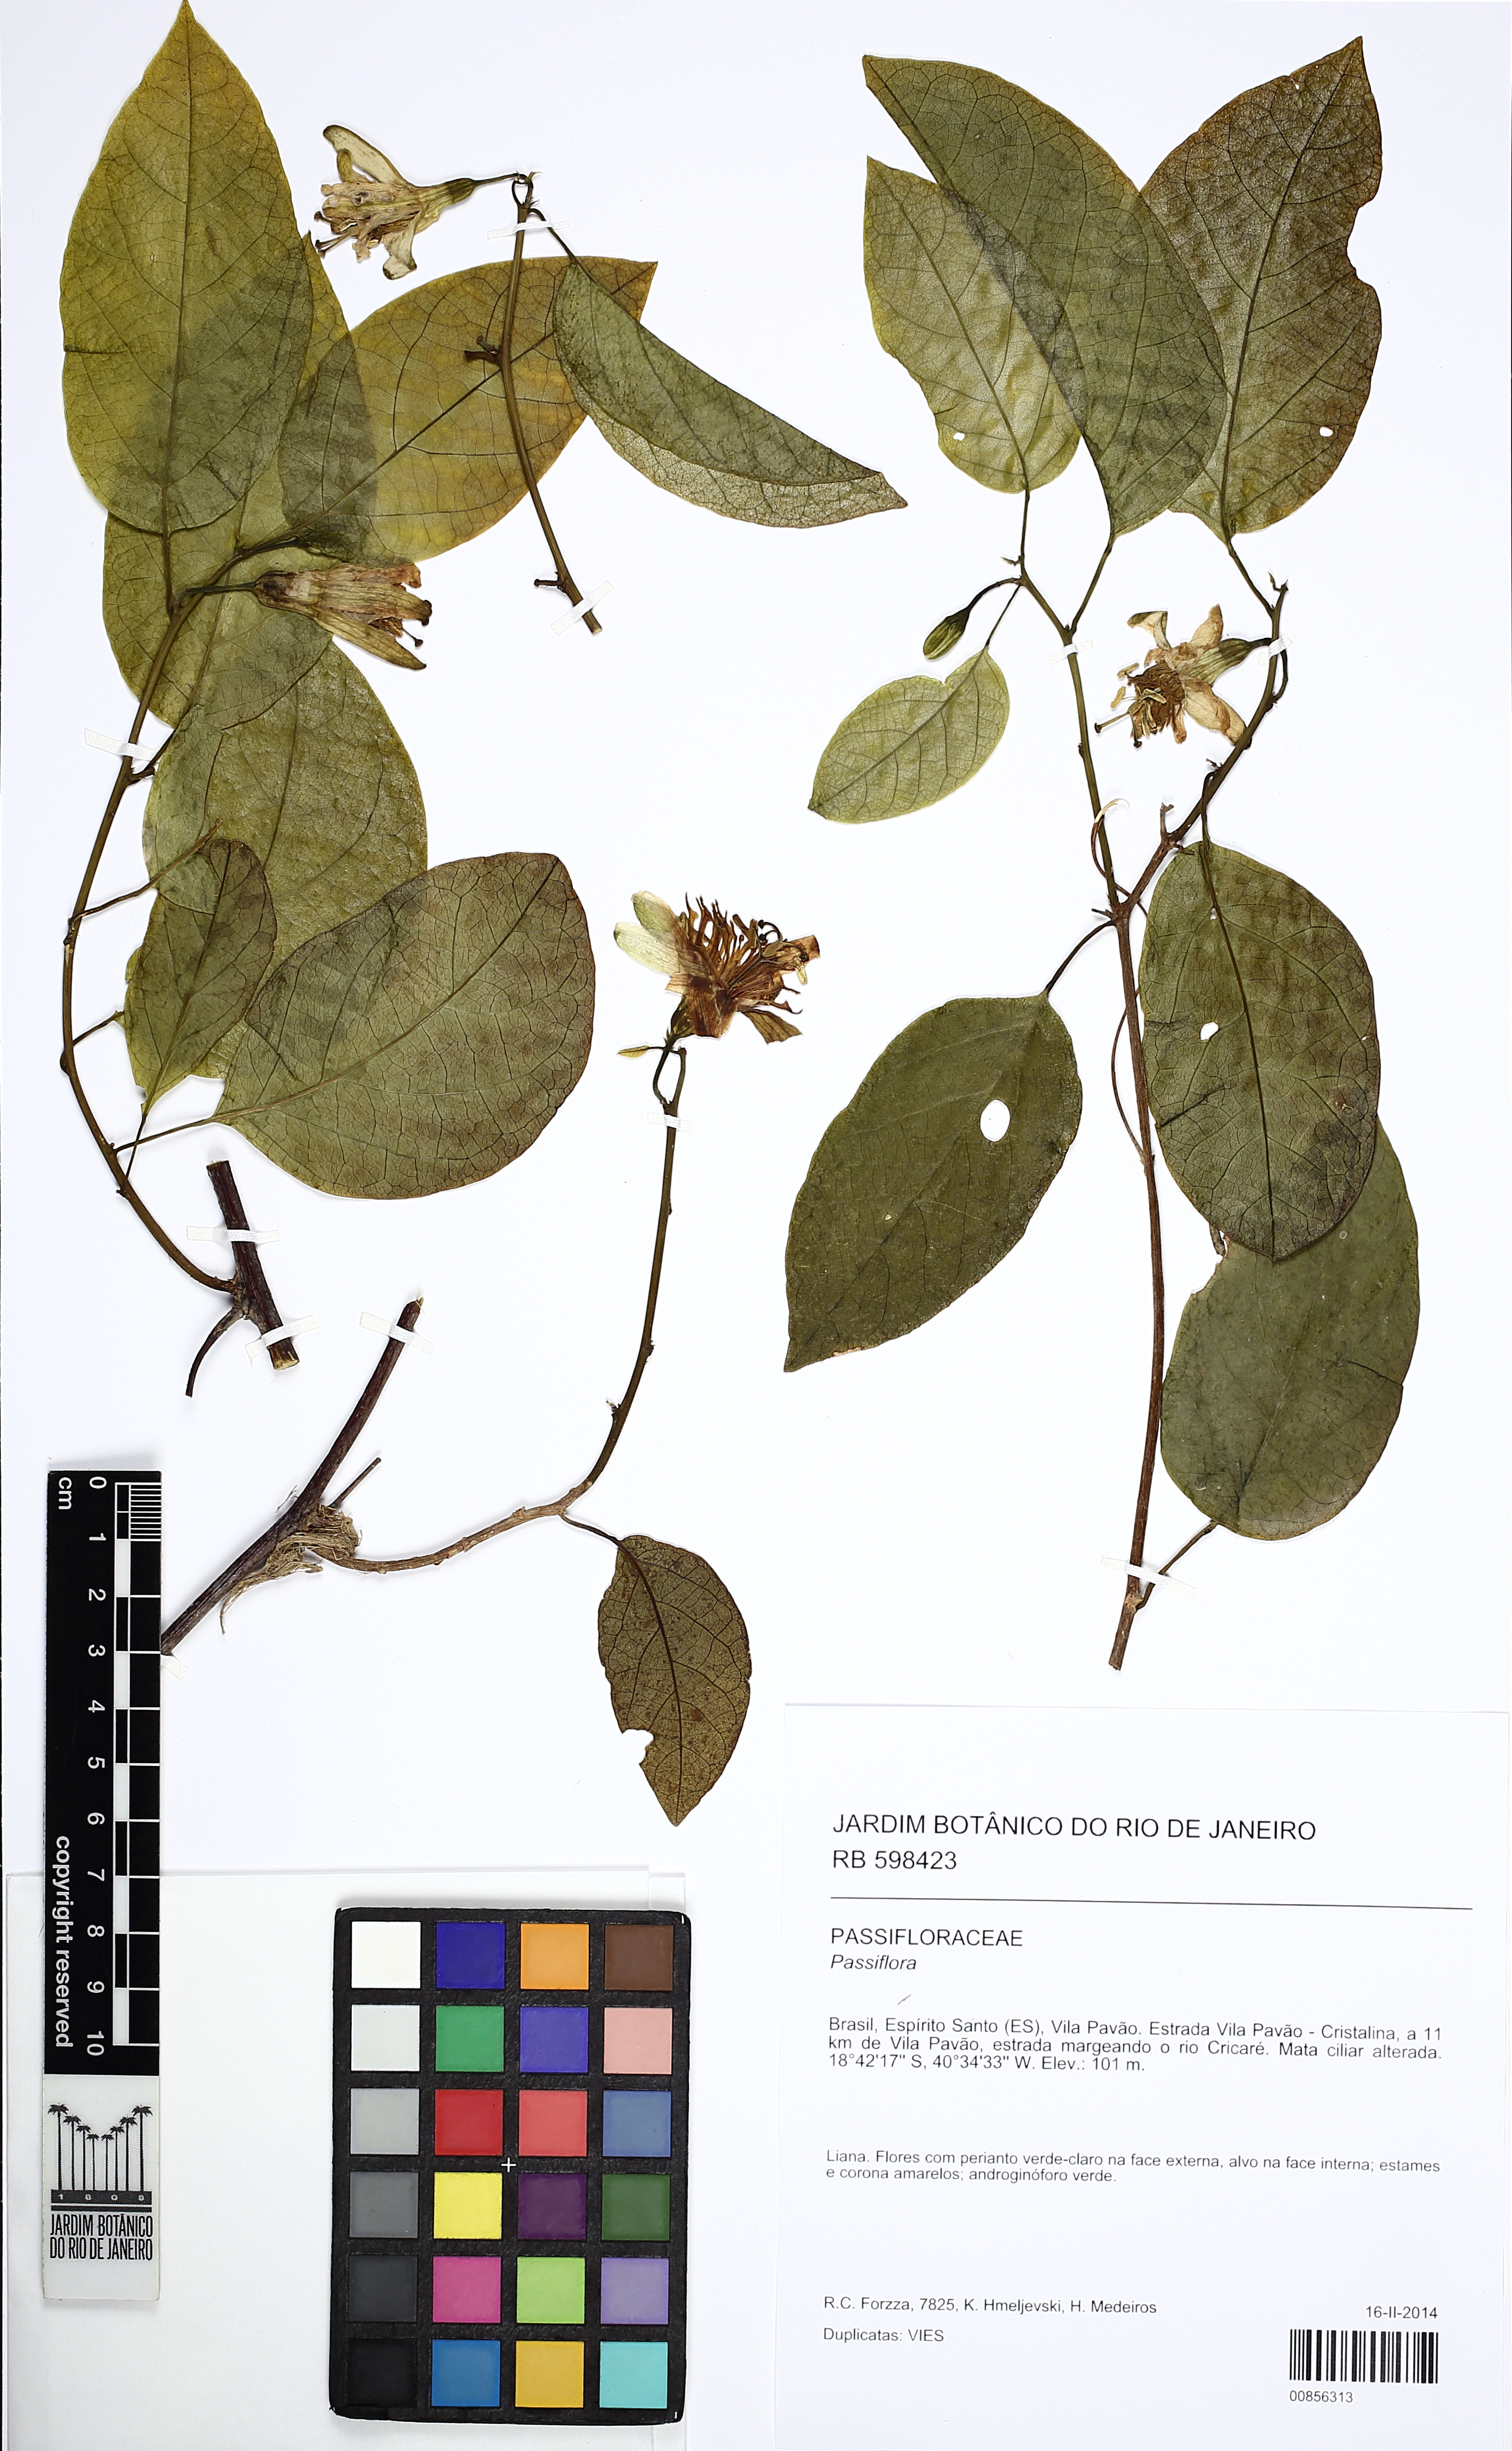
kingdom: Plantae
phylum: Tracheophyta
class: Magnoliopsida
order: Malpighiales
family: Passifloraceae
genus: Passiflora
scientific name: Passiflora pentagona
